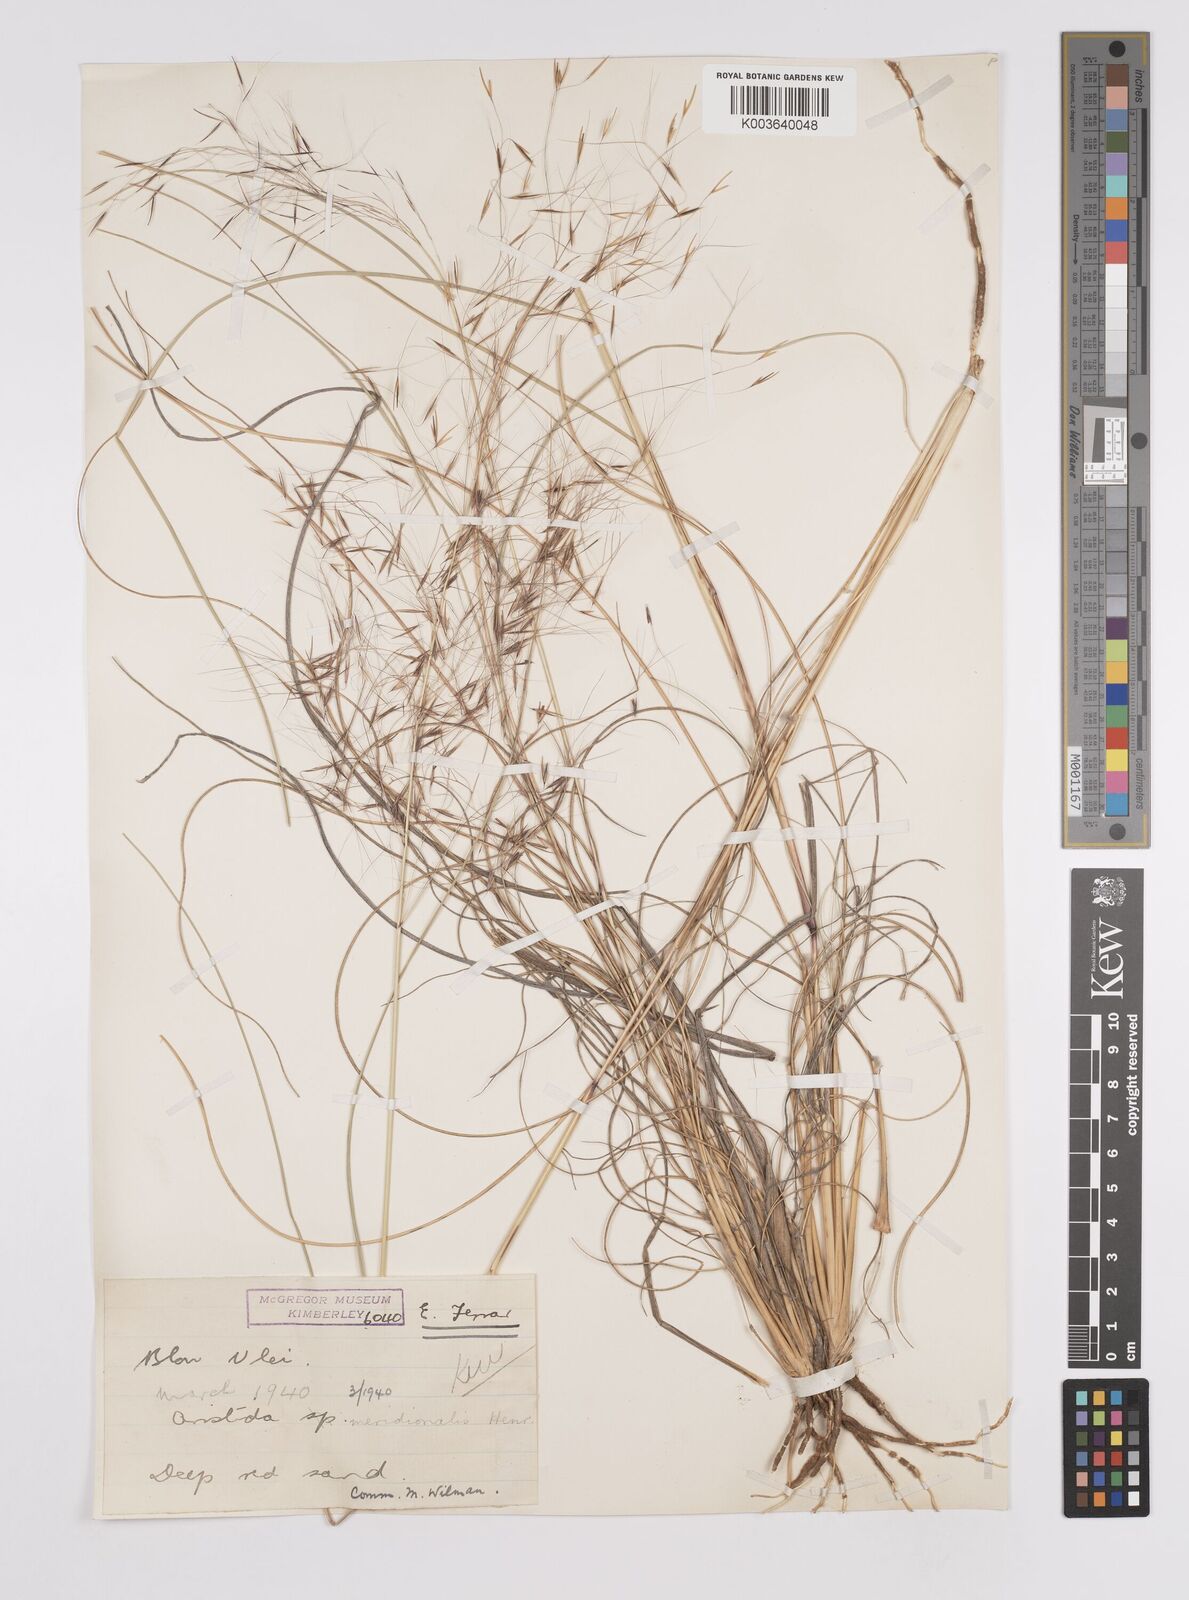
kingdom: Plantae
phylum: Tracheophyta
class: Liliopsida
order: Poales
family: Poaceae
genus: Aristida
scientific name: Aristida meridionalis
